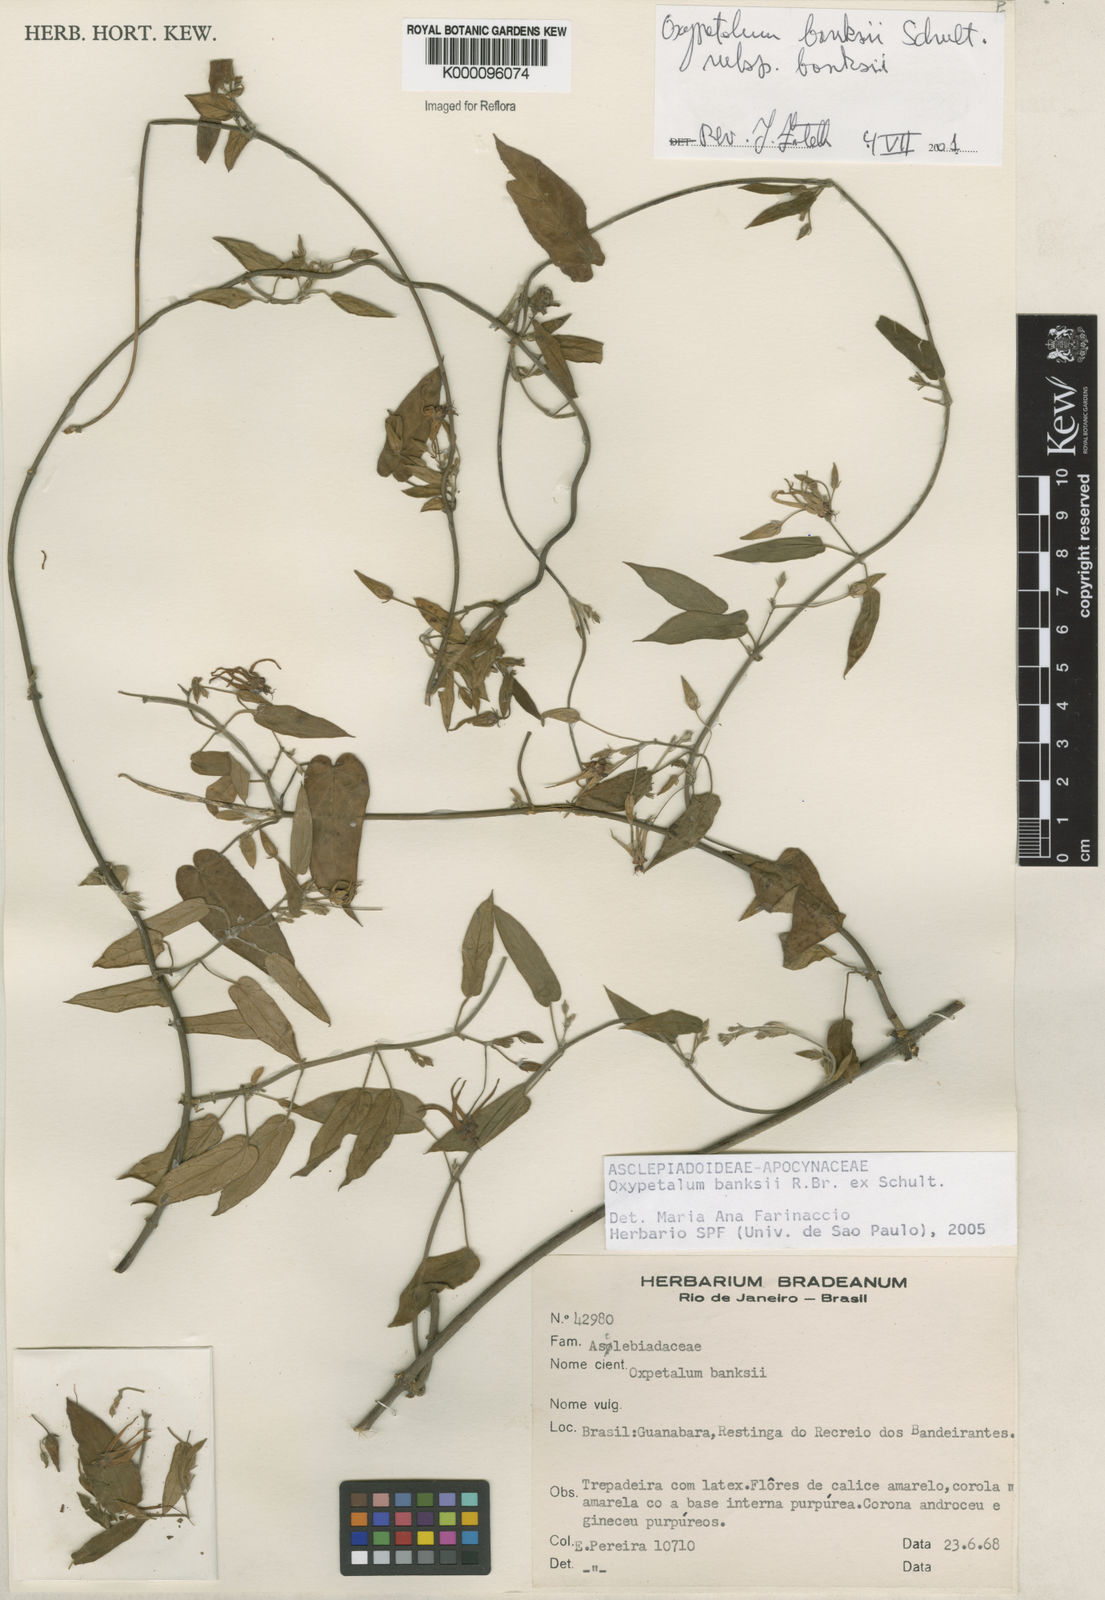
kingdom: Plantae
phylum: Tracheophyta
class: Magnoliopsida
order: Gentianales
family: Apocynaceae
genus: Oxypetalum
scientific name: Oxypetalum banksii
